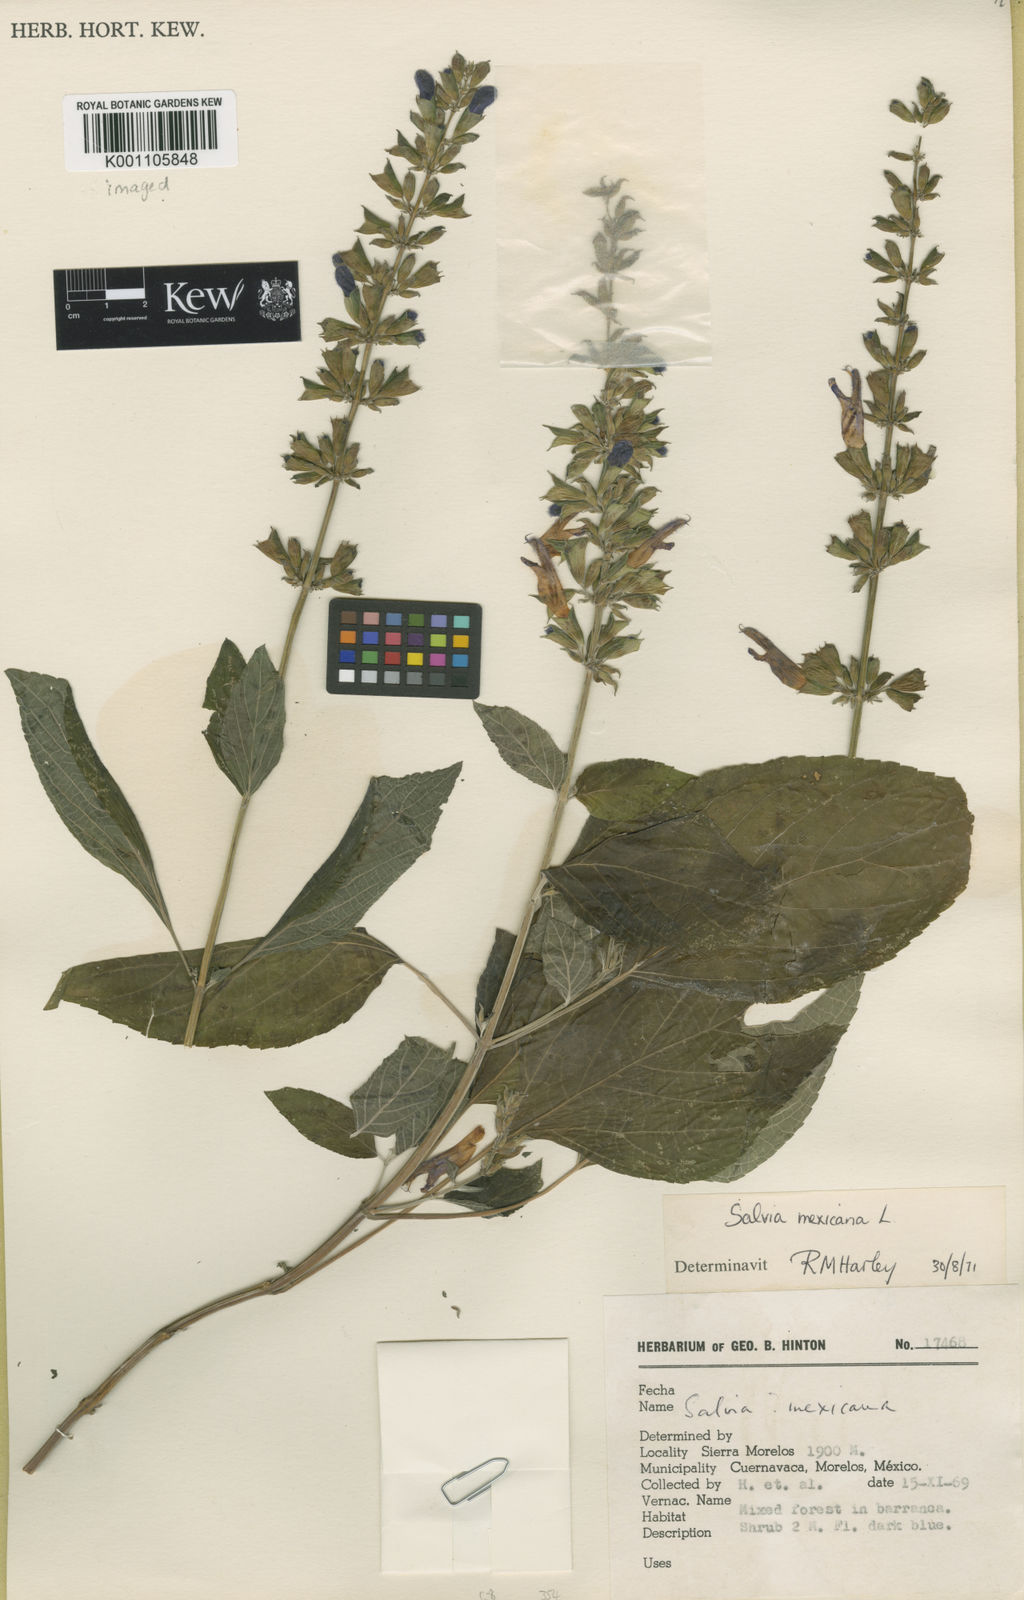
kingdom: Plantae
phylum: Tracheophyta
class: Magnoliopsida
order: Lamiales
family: Lamiaceae
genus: Salvia
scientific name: Salvia mexicana
